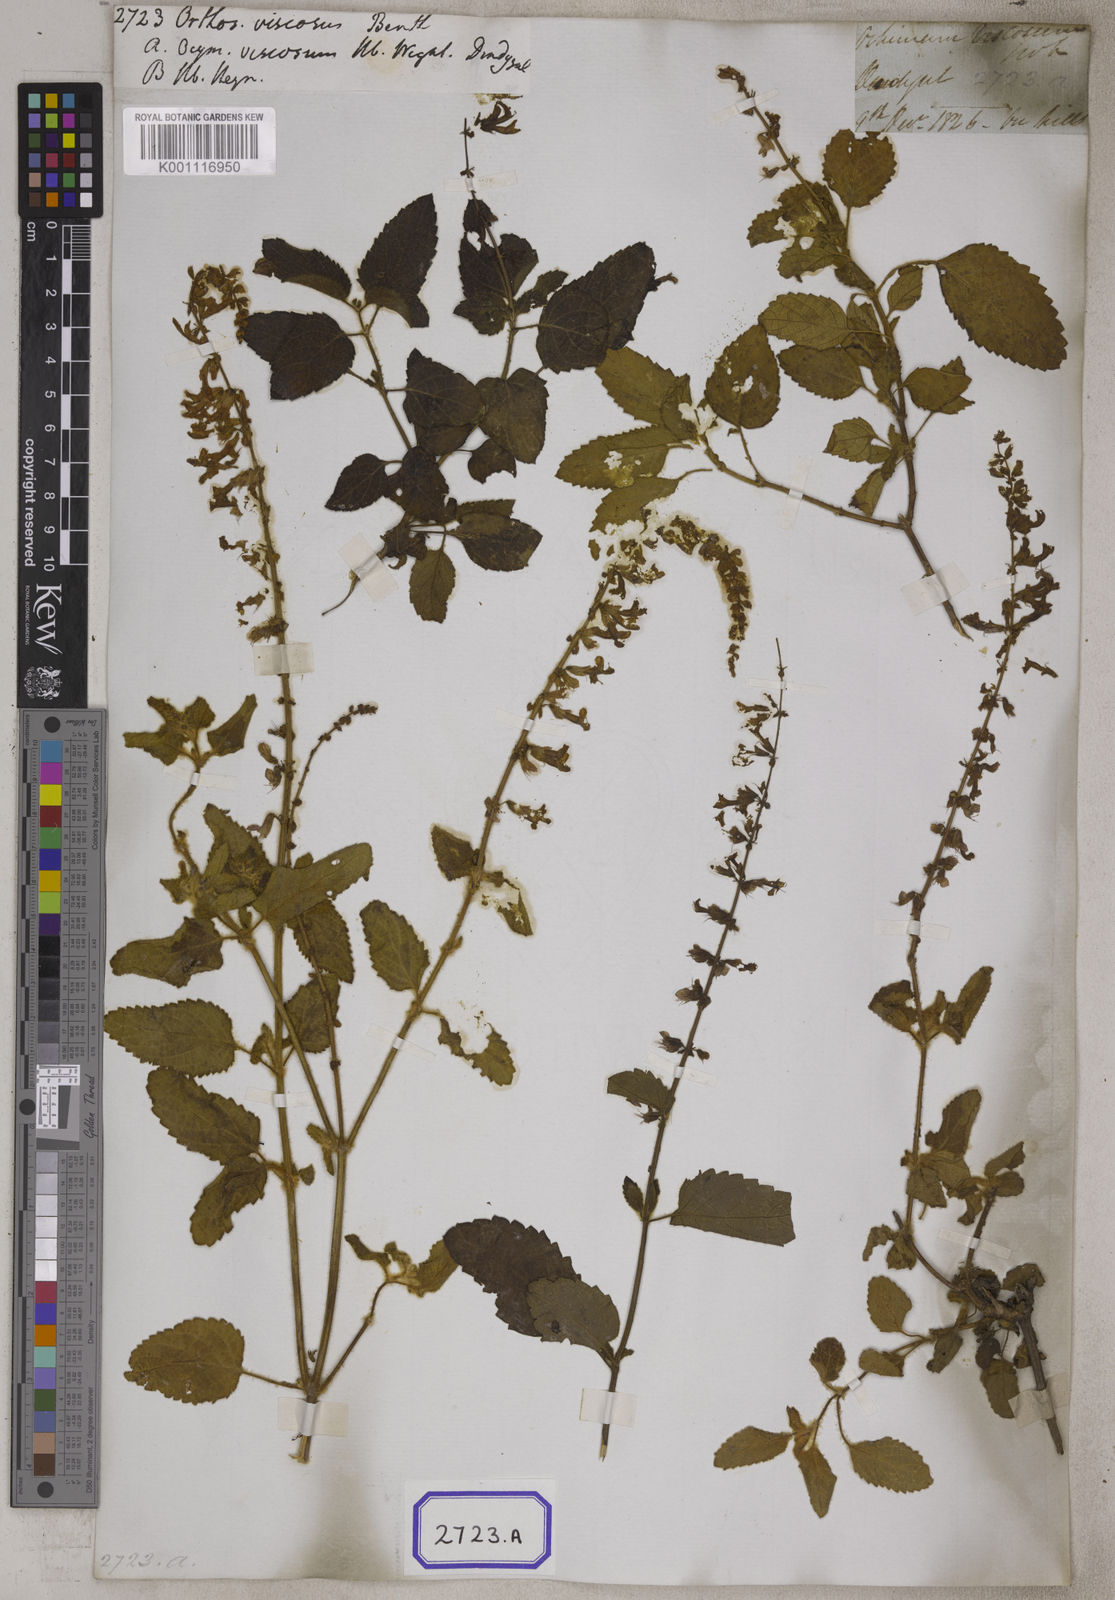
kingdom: Plantae
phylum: Tracheophyta
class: Magnoliopsida
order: Lamiales
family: Lamiaceae
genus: Orthosiphon
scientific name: Orthosiphon thymiflorus
